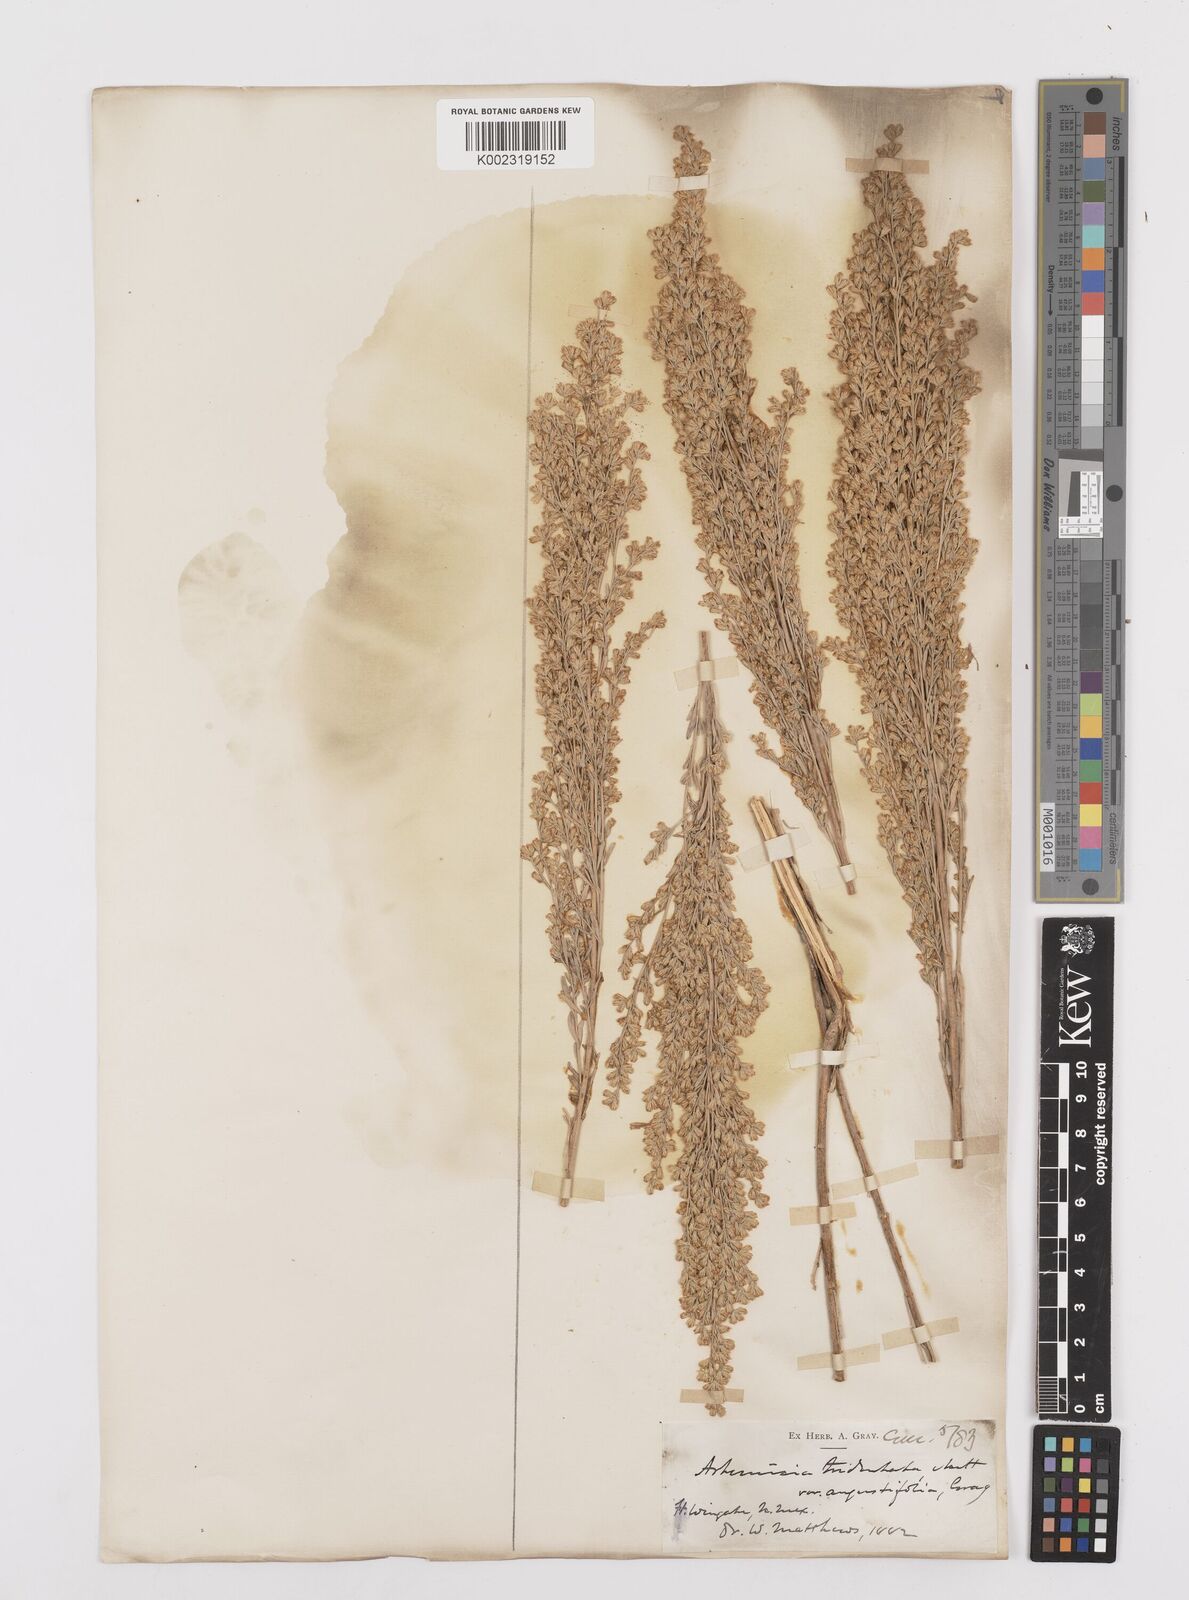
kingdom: Plantae
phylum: Tracheophyta
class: Magnoliopsida
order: Asterales
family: Asteraceae
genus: Artemisia
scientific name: Artemisia tridentata
